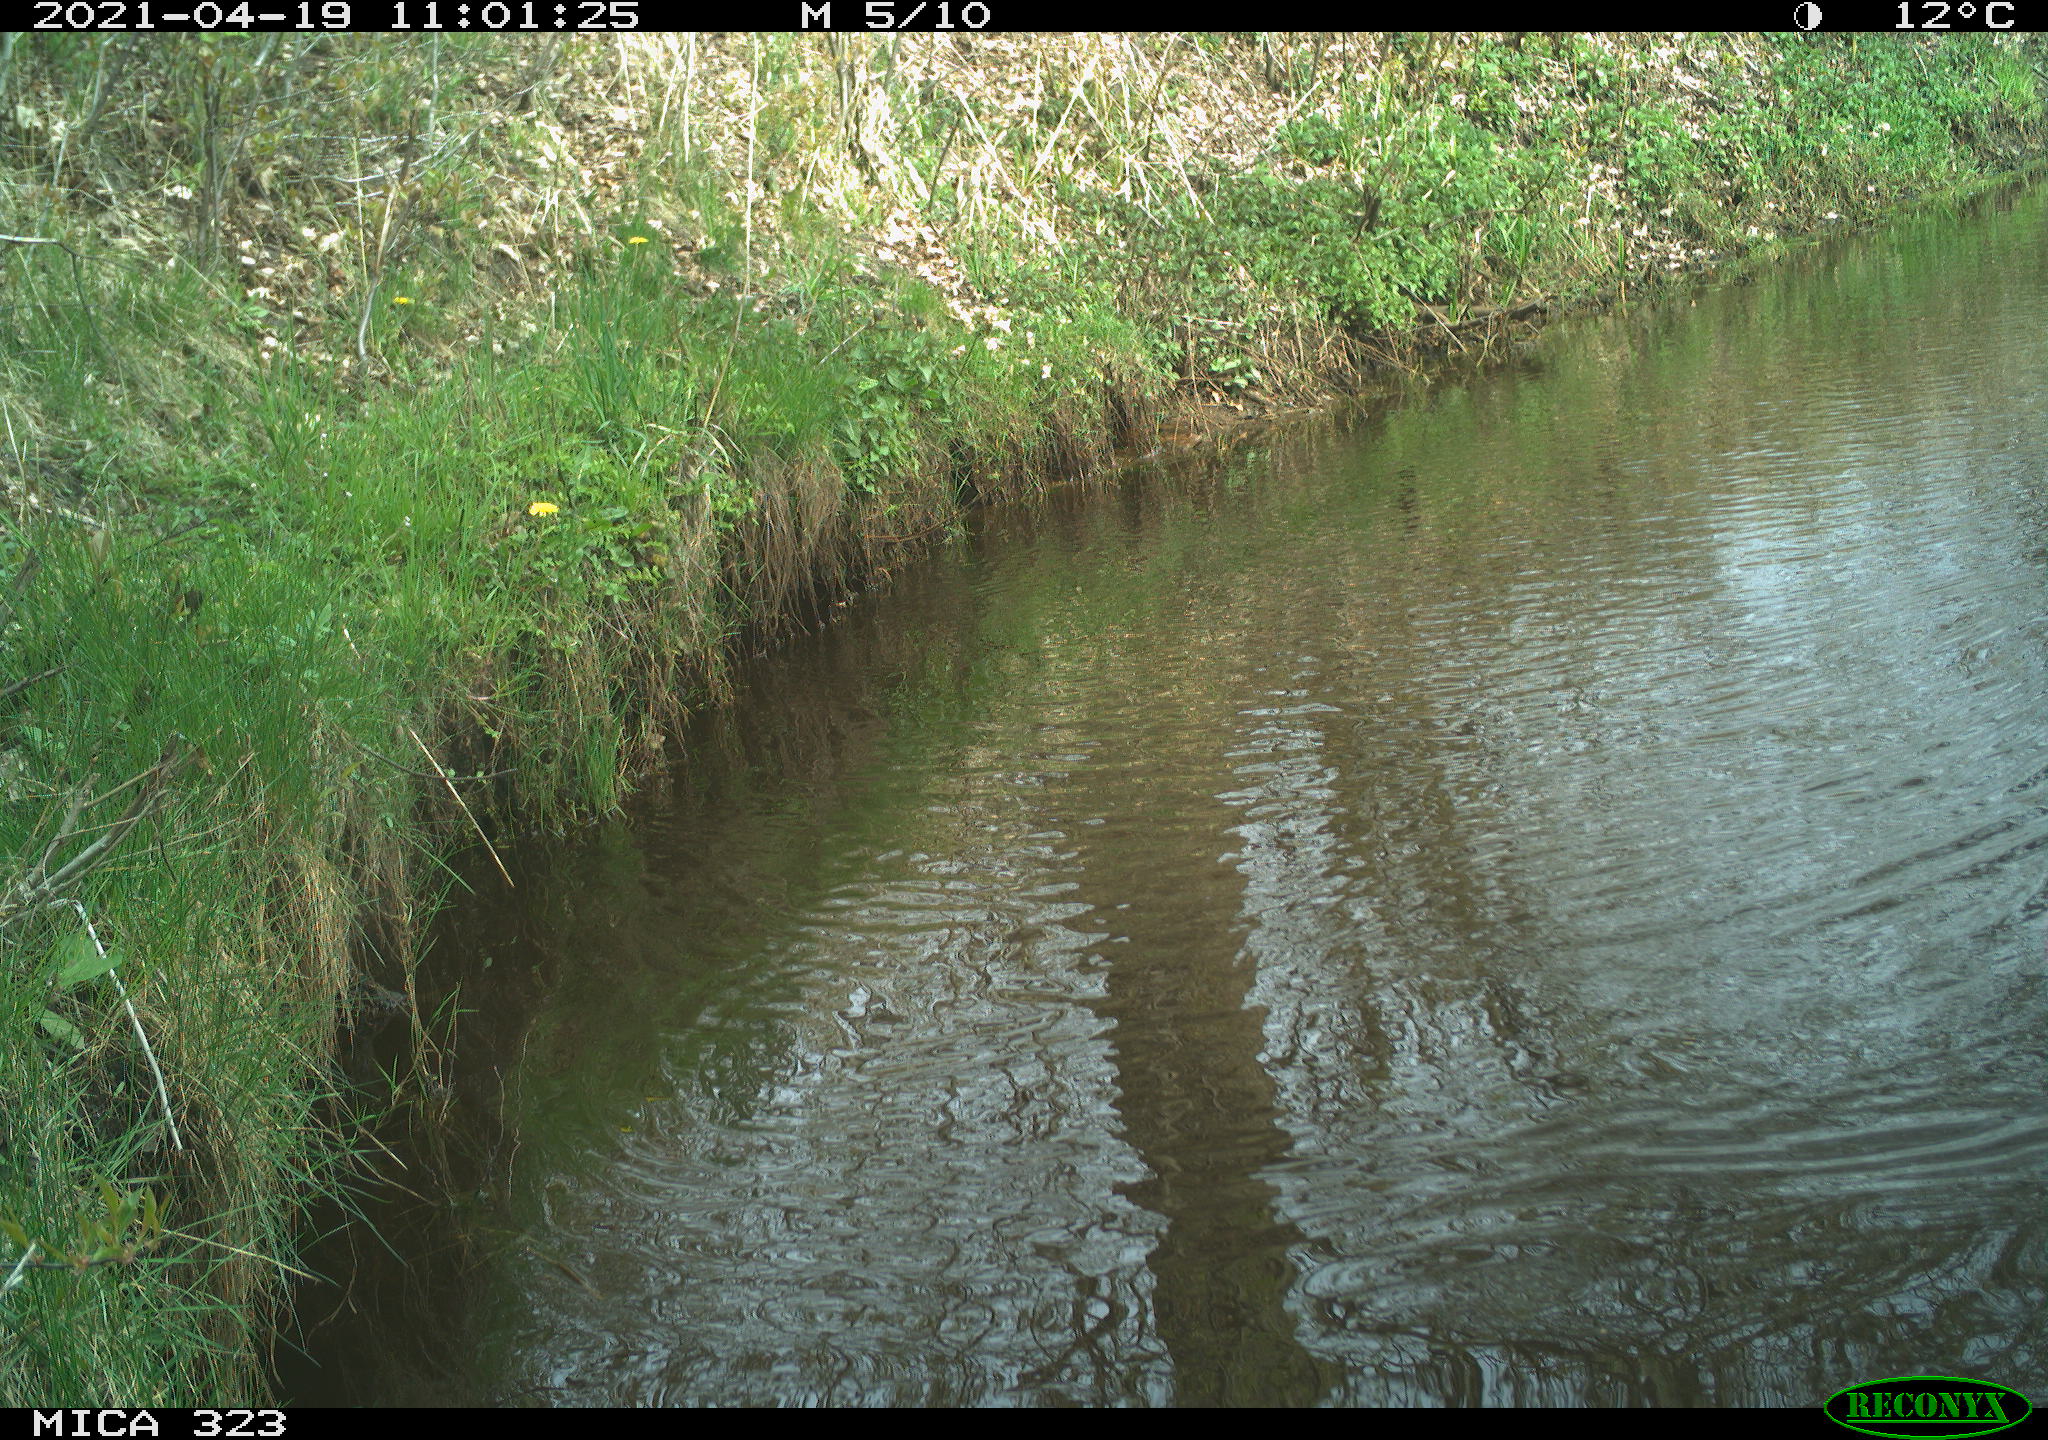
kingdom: Animalia
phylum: Chordata
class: Aves
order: Anseriformes
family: Anatidae
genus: Anas
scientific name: Anas platyrhynchos
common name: Mallard
